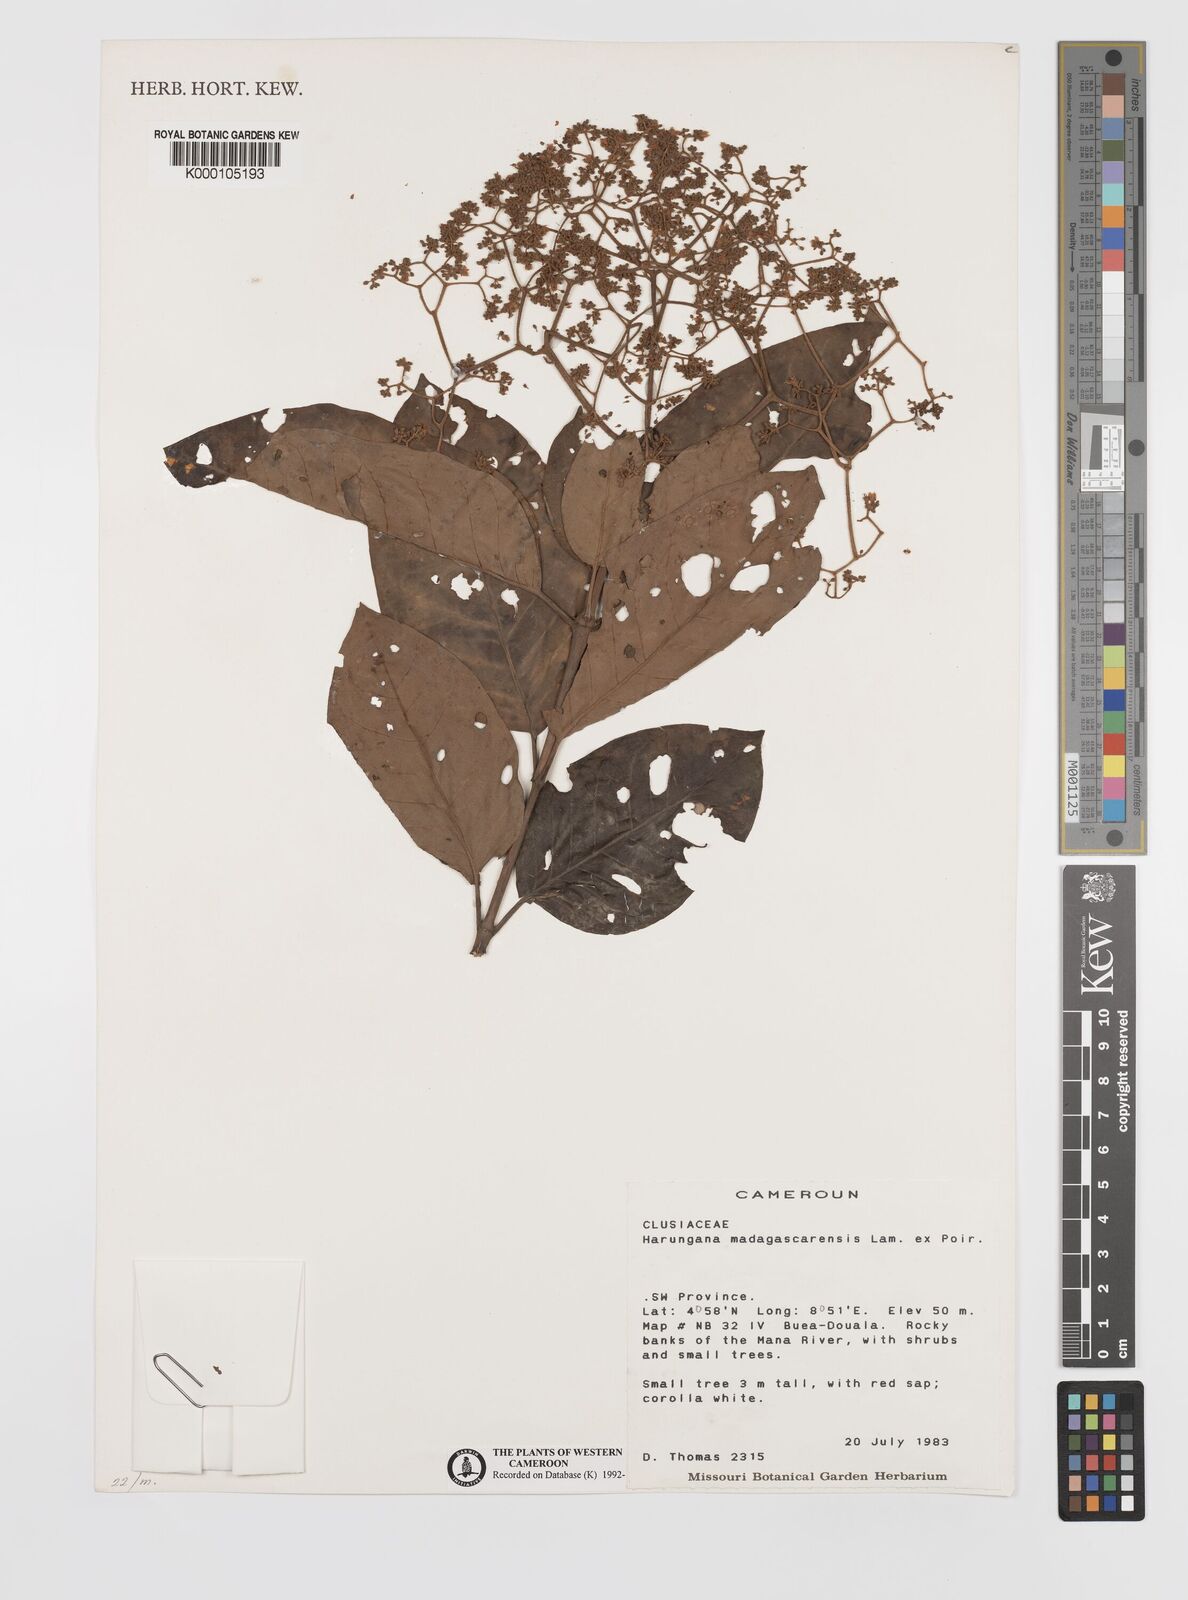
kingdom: Plantae
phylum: Tracheophyta
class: Magnoliopsida
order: Malpighiales
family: Hypericaceae
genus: Harungana
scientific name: Harungana madagascariensis
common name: Orange milktree
